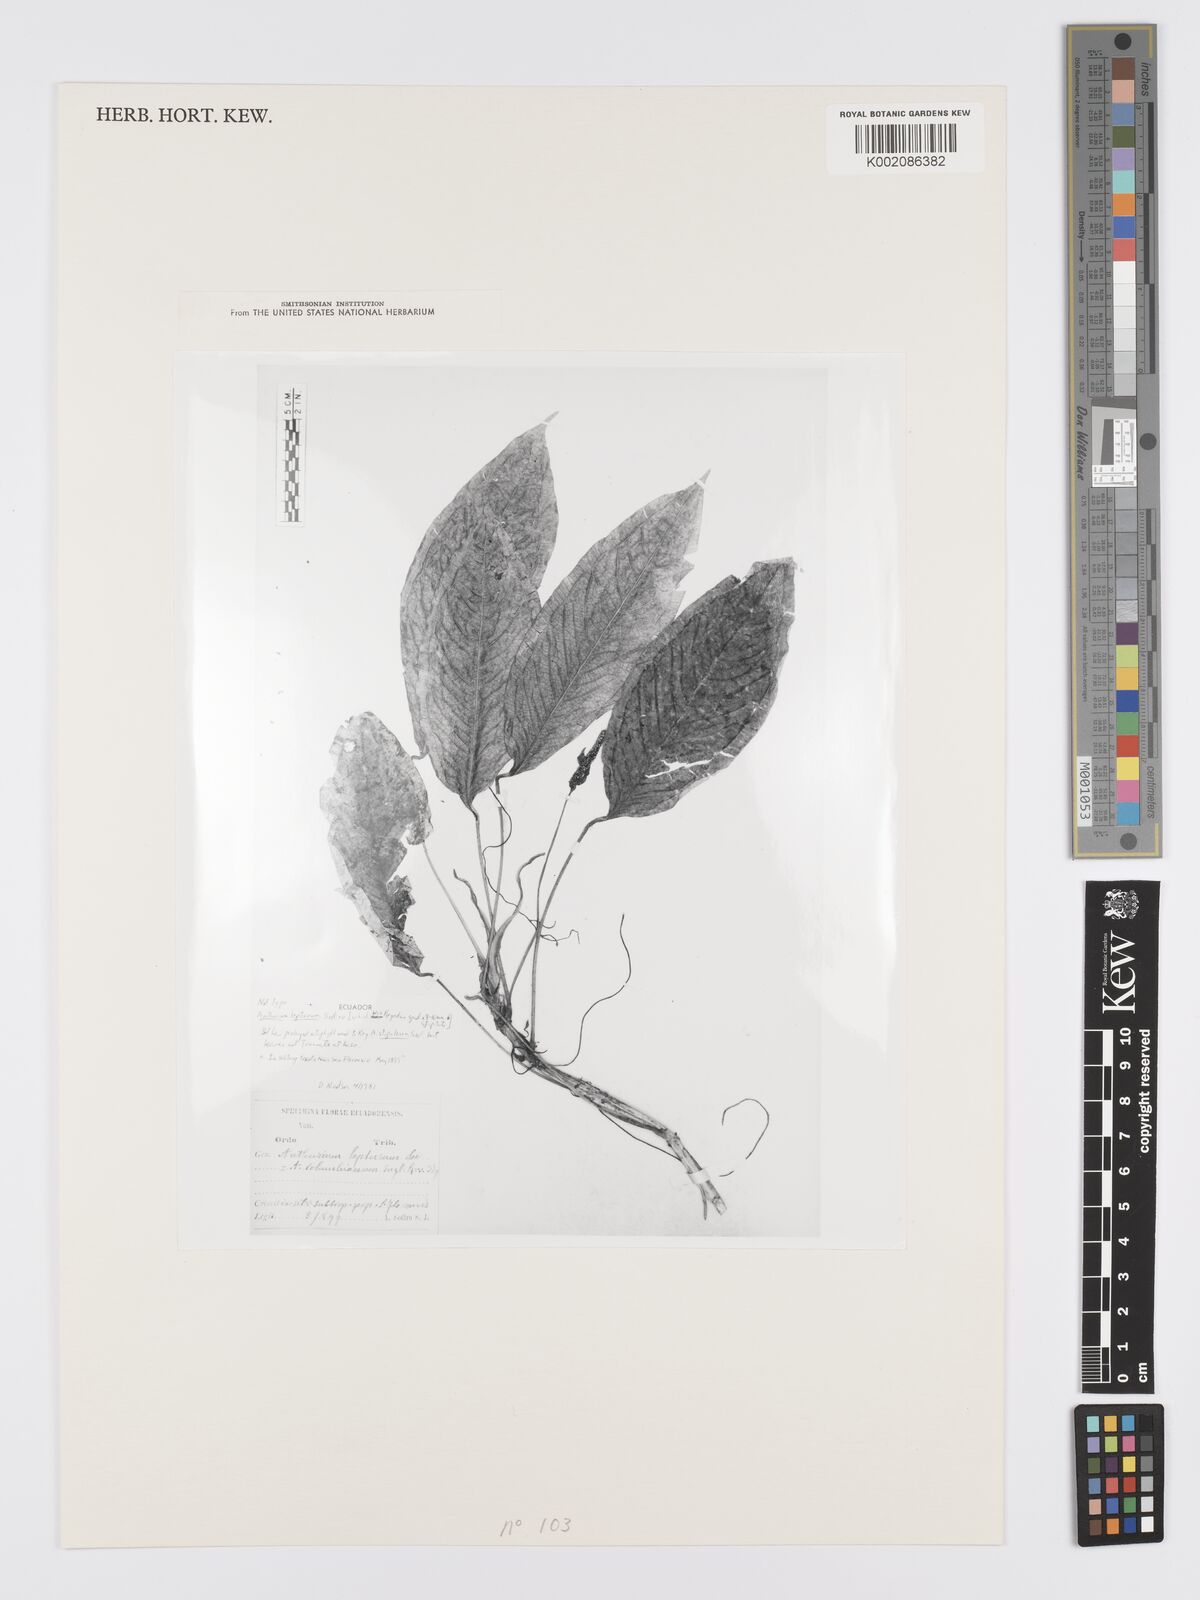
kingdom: Plantae
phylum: Tracheophyta
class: Liliopsida
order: Alismatales
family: Araceae
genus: Anthurium
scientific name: Anthurium microspadix
